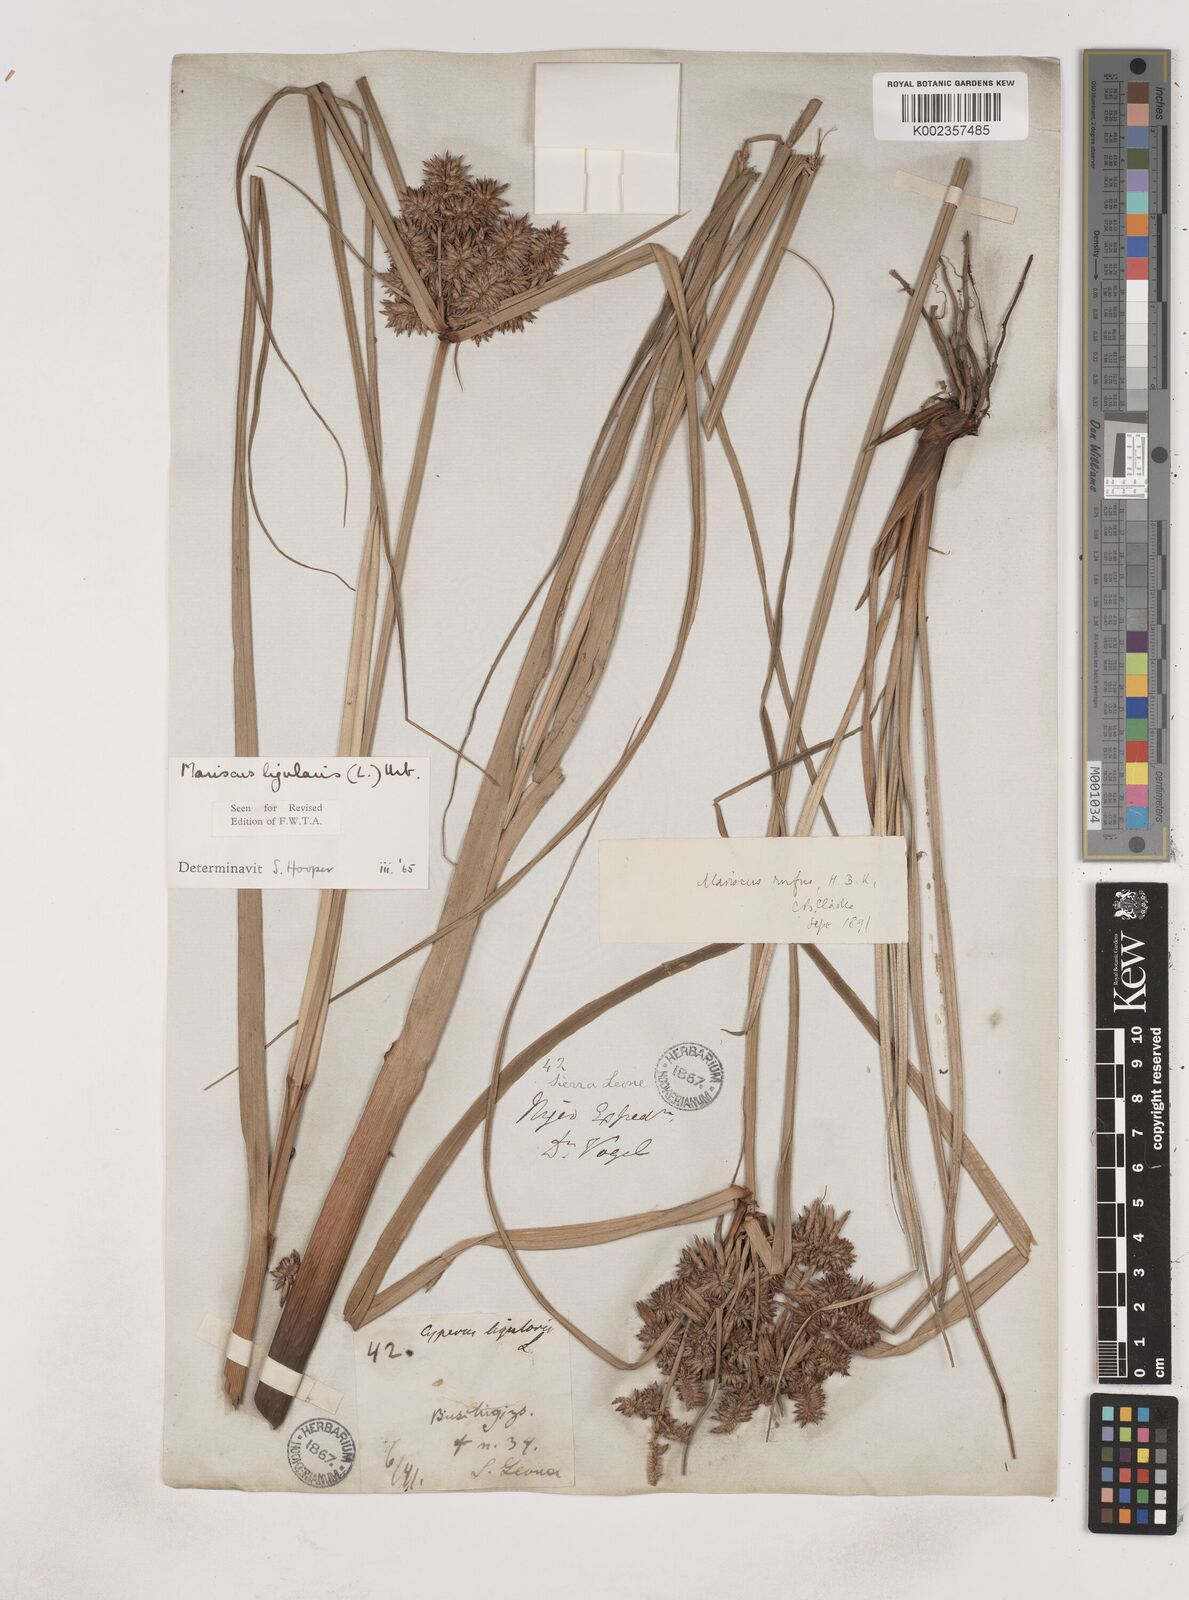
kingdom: Plantae
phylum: Tracheophyta
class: Liliopsida
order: Poales
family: Cyperaceae
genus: Cyperus
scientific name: Cyperus ligularis
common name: Swamp flat sedge
